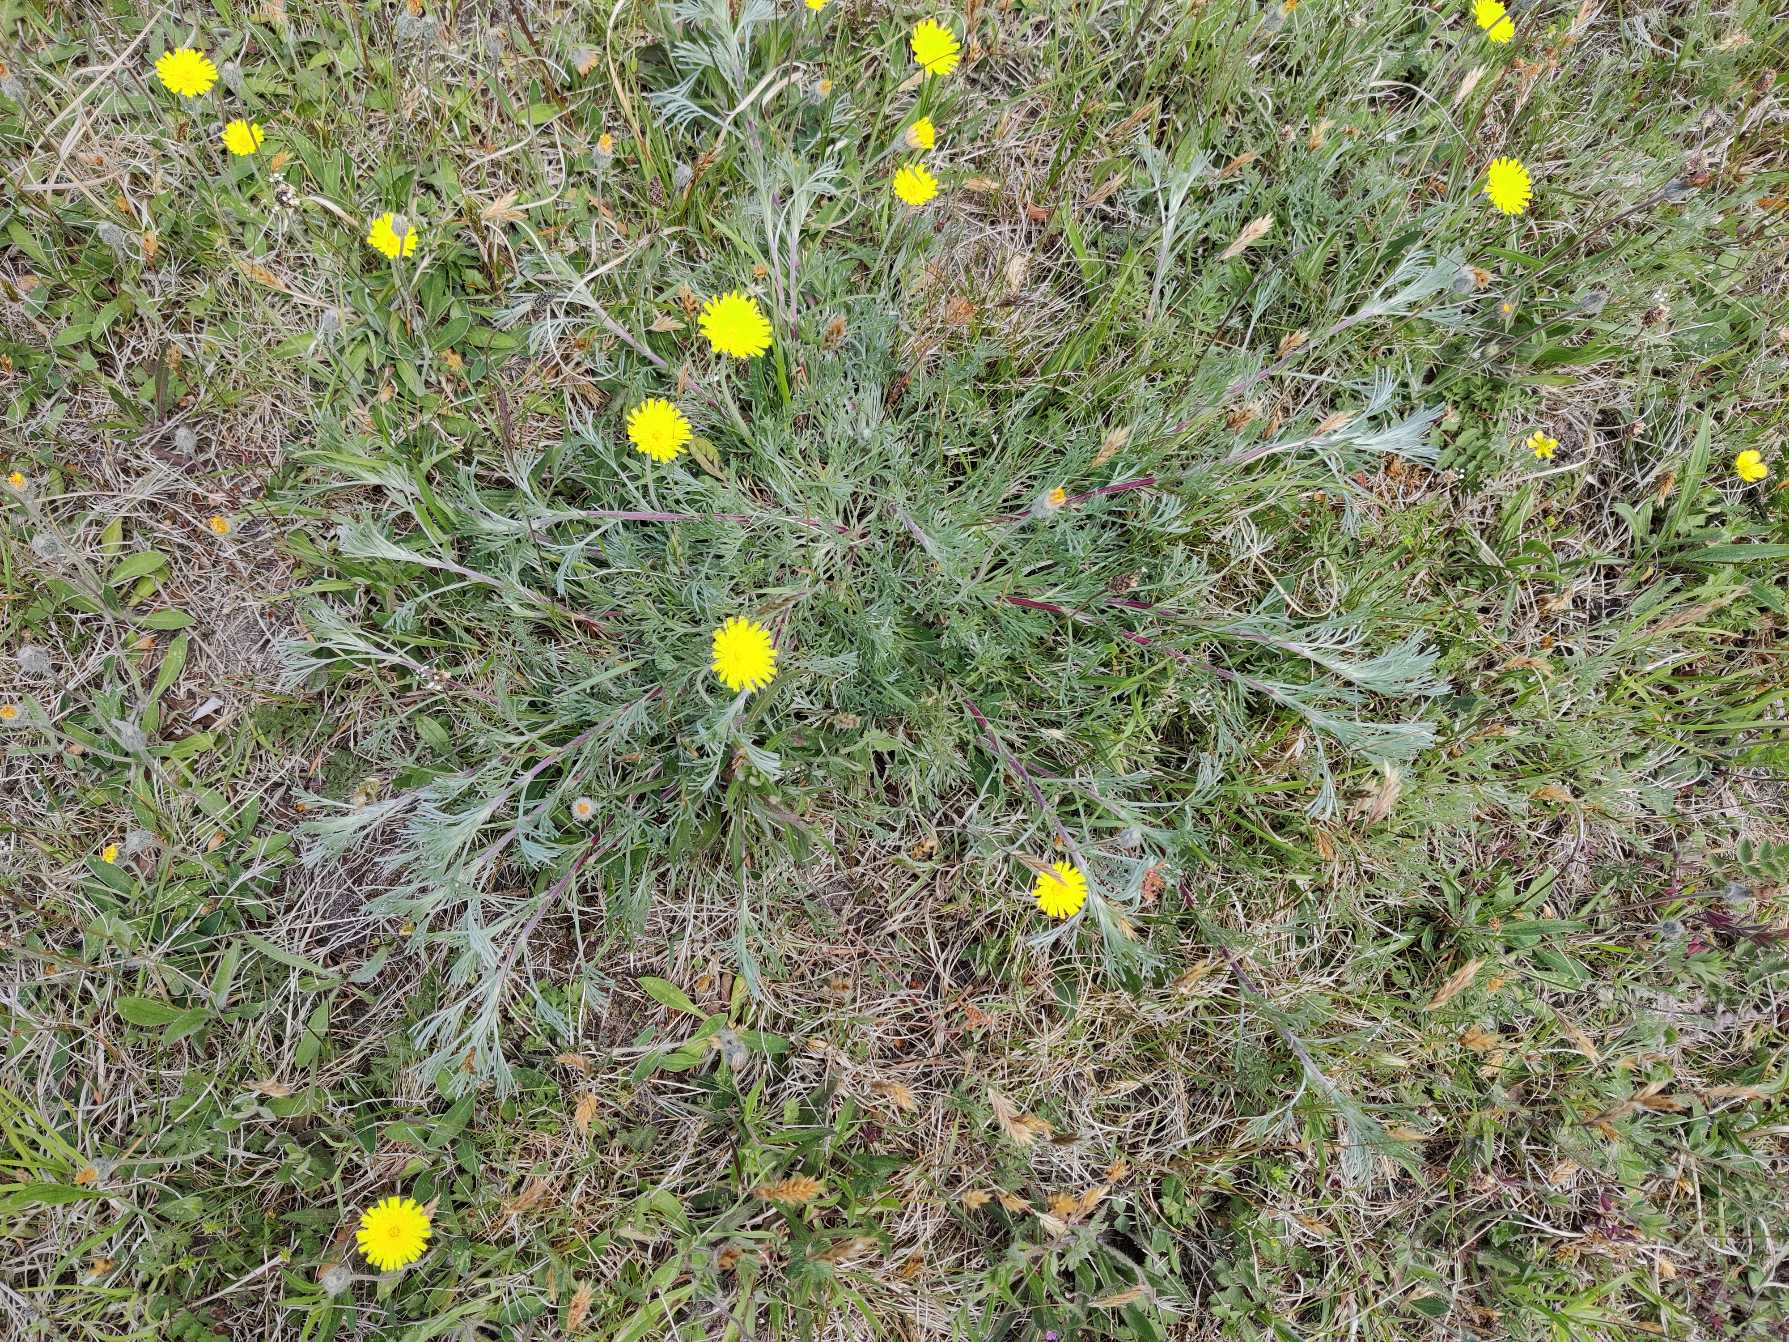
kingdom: Plantae
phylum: Tracheophyta
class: Magnoliopsida
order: Asterales
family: Asteraceae
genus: Artemisia
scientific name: Artemisia campestris
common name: Mark-bynke
